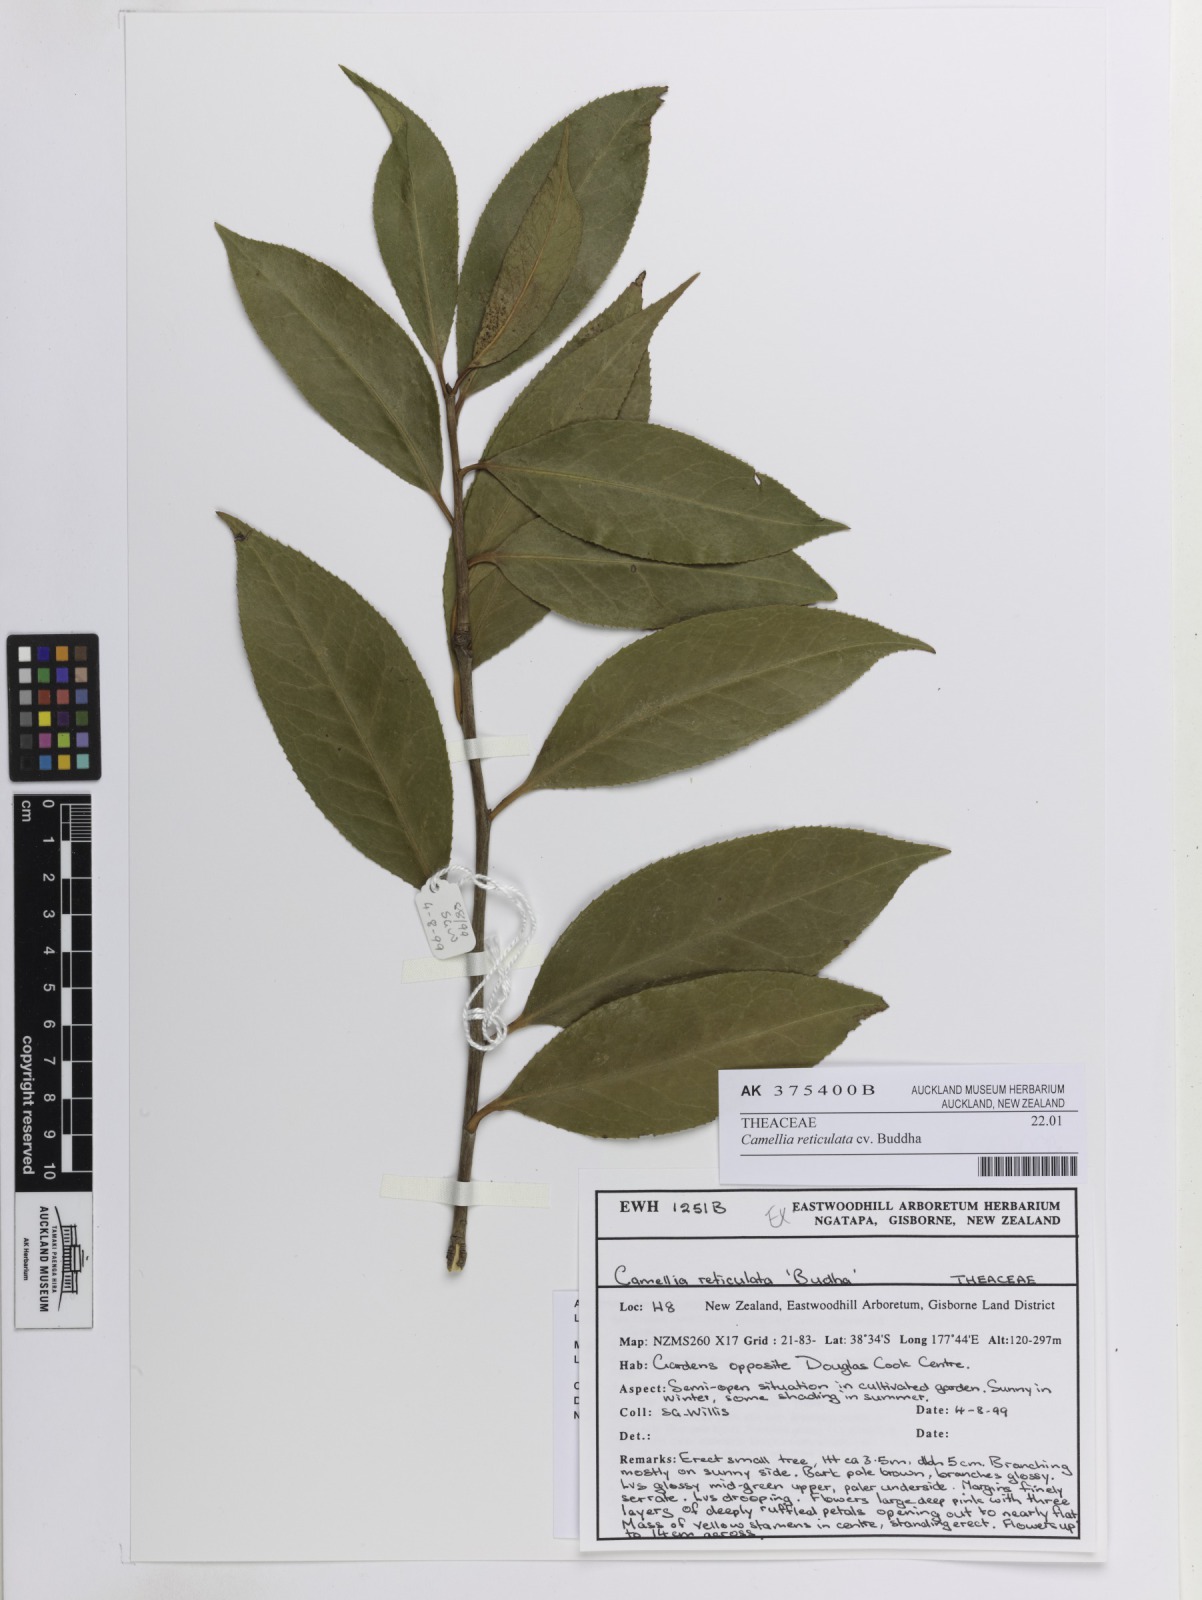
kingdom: Plantae
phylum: Tracheophyta
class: Magnoliopsida
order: Ericales
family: Theaceae
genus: Camellia
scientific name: Camellia reticulata
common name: To-tsubaki
